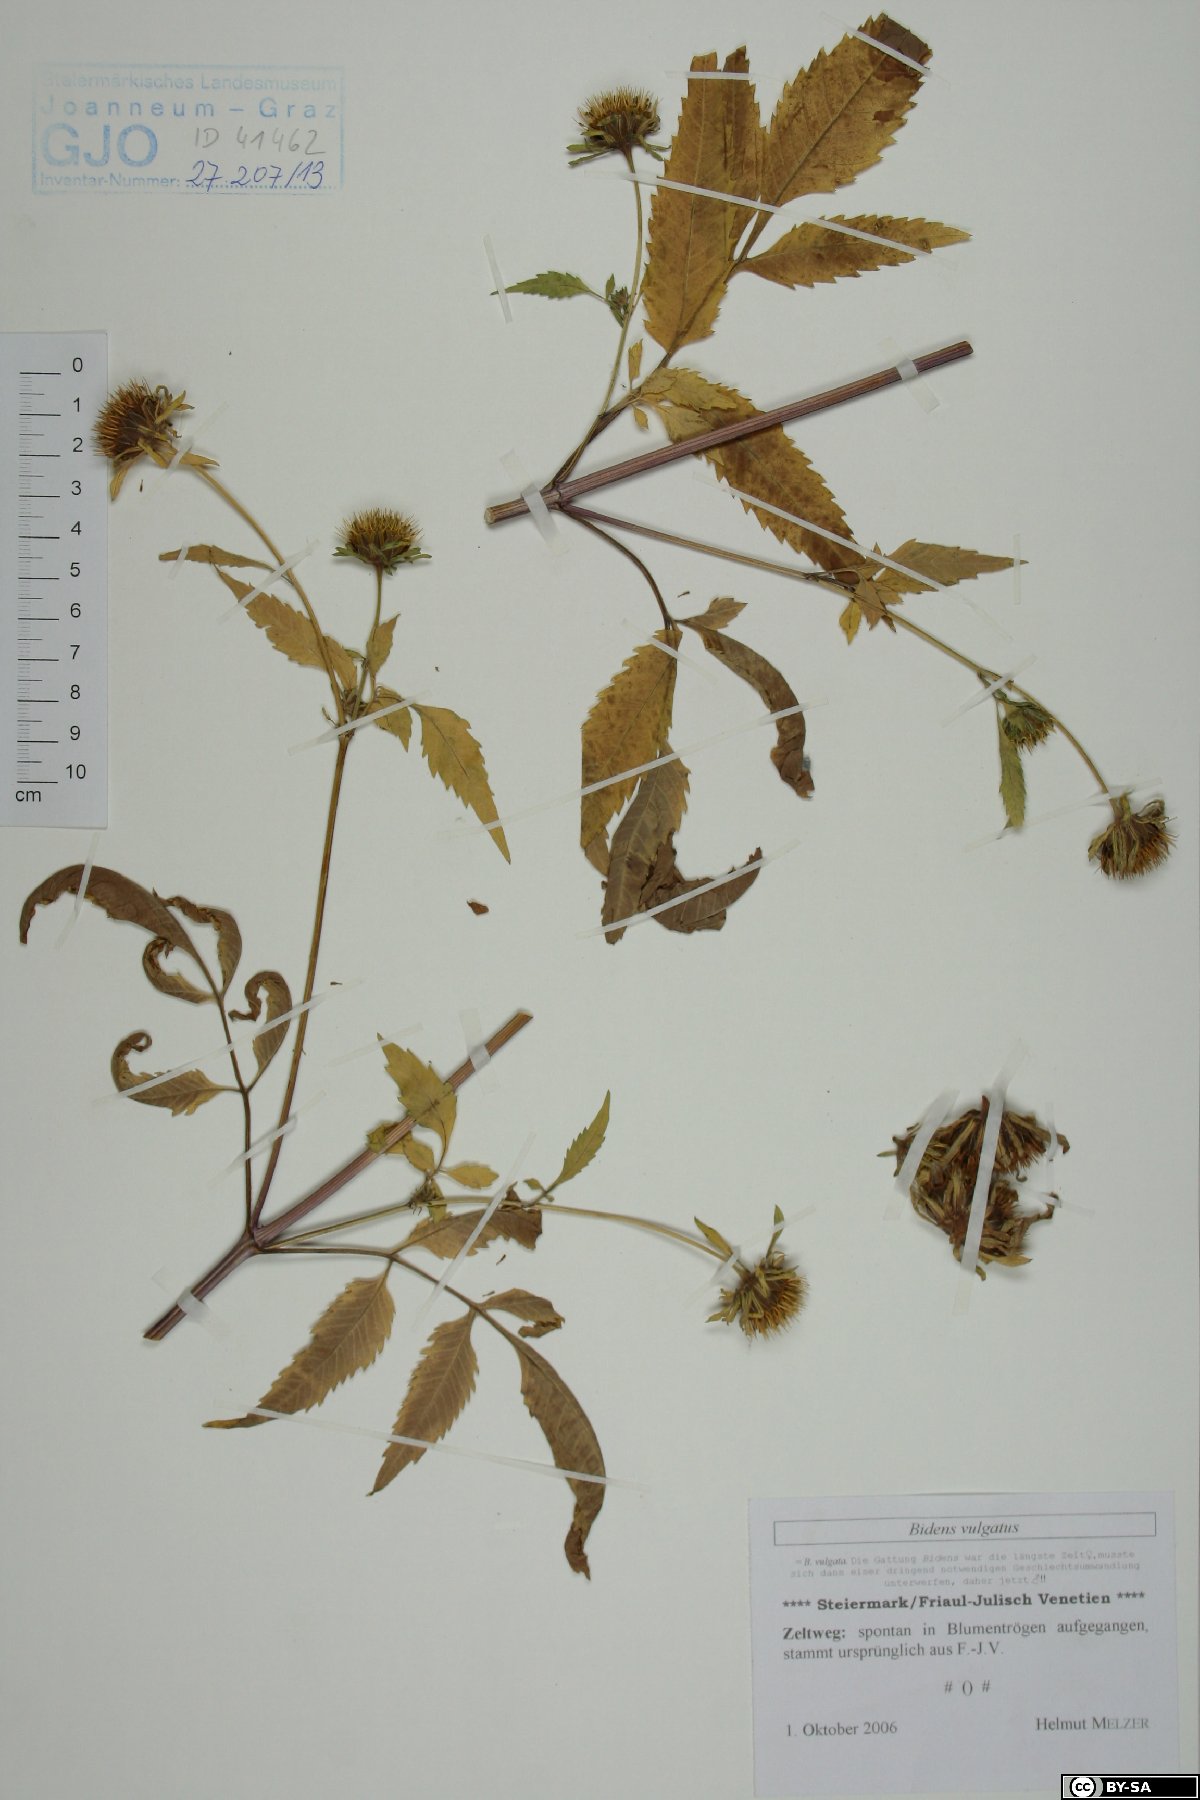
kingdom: Plantae
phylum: Tracheophyta
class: Magnoliopsida
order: Asterales
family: Asteraceae
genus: Bidens
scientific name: Bidens vulgata
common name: Tall beggarticks
